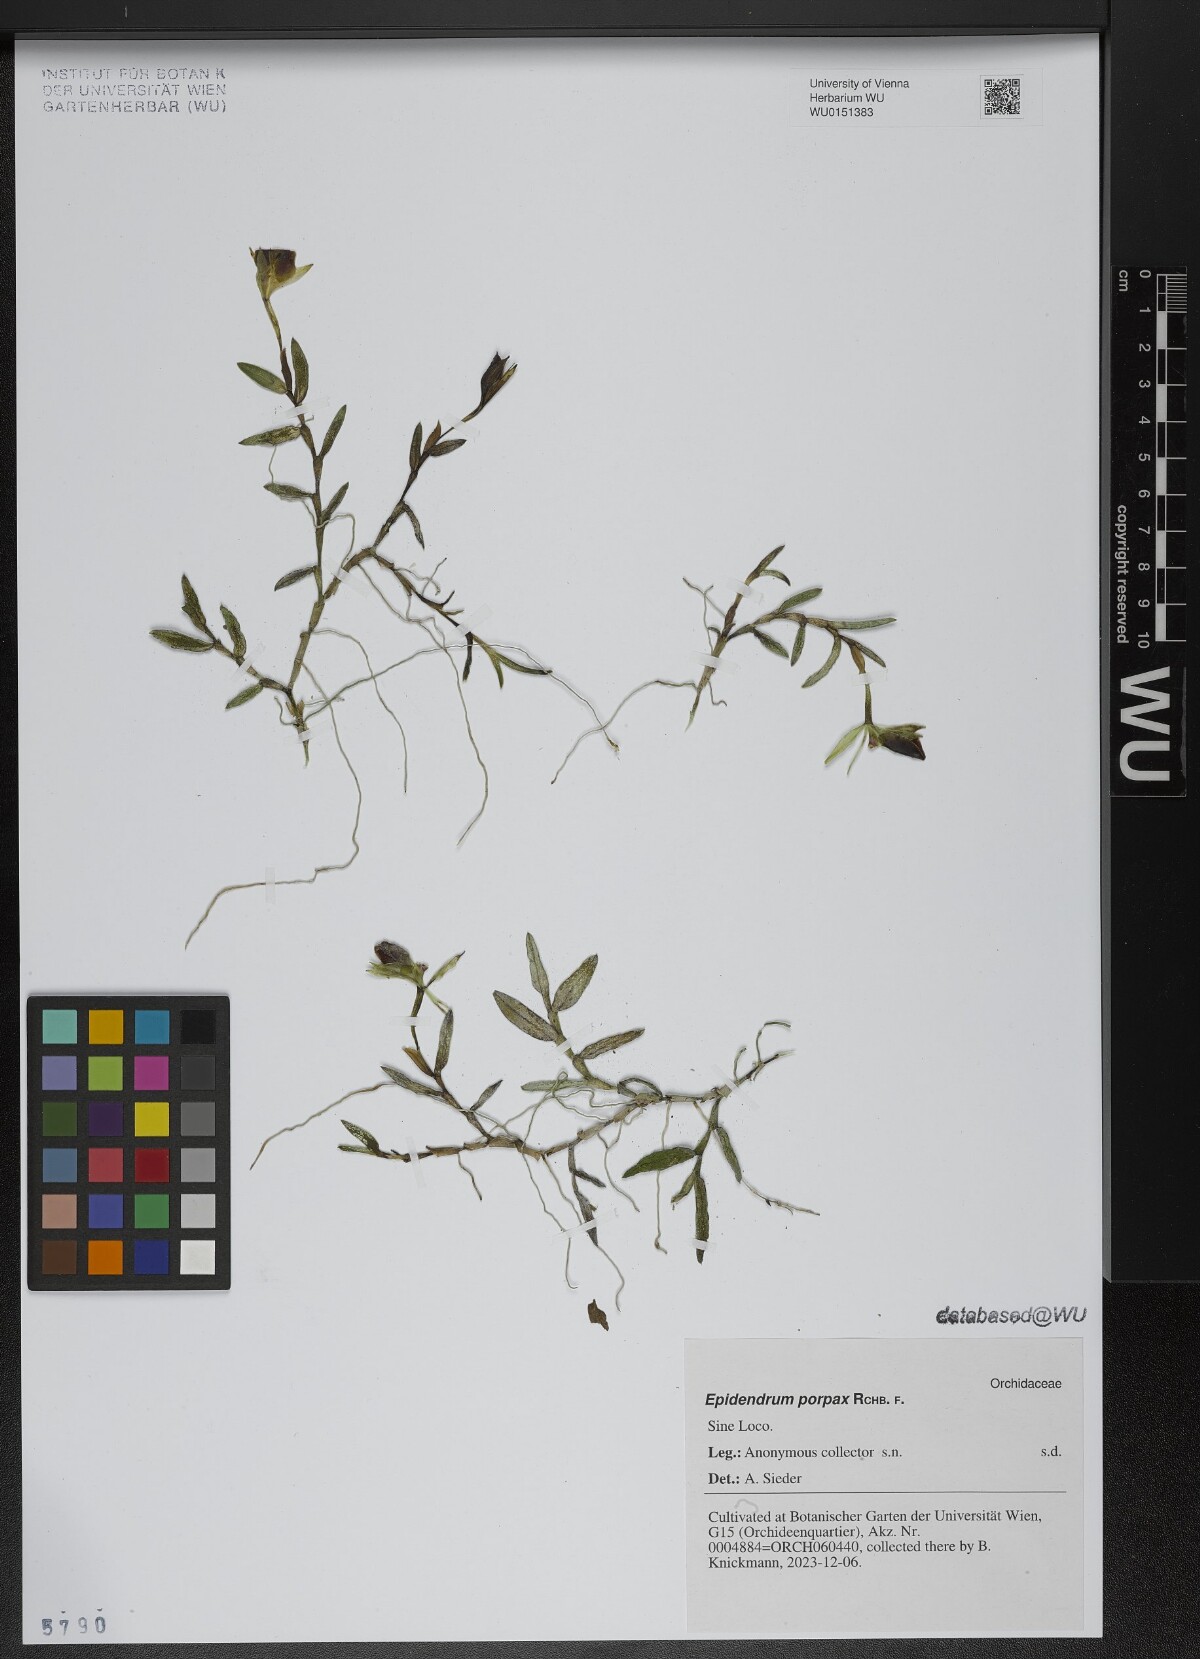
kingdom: Plantae
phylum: Tracheophyta
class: Liliopsida
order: Asparagales
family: Orchidaceae
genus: Epidendrum
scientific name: Epidendrum porpax
